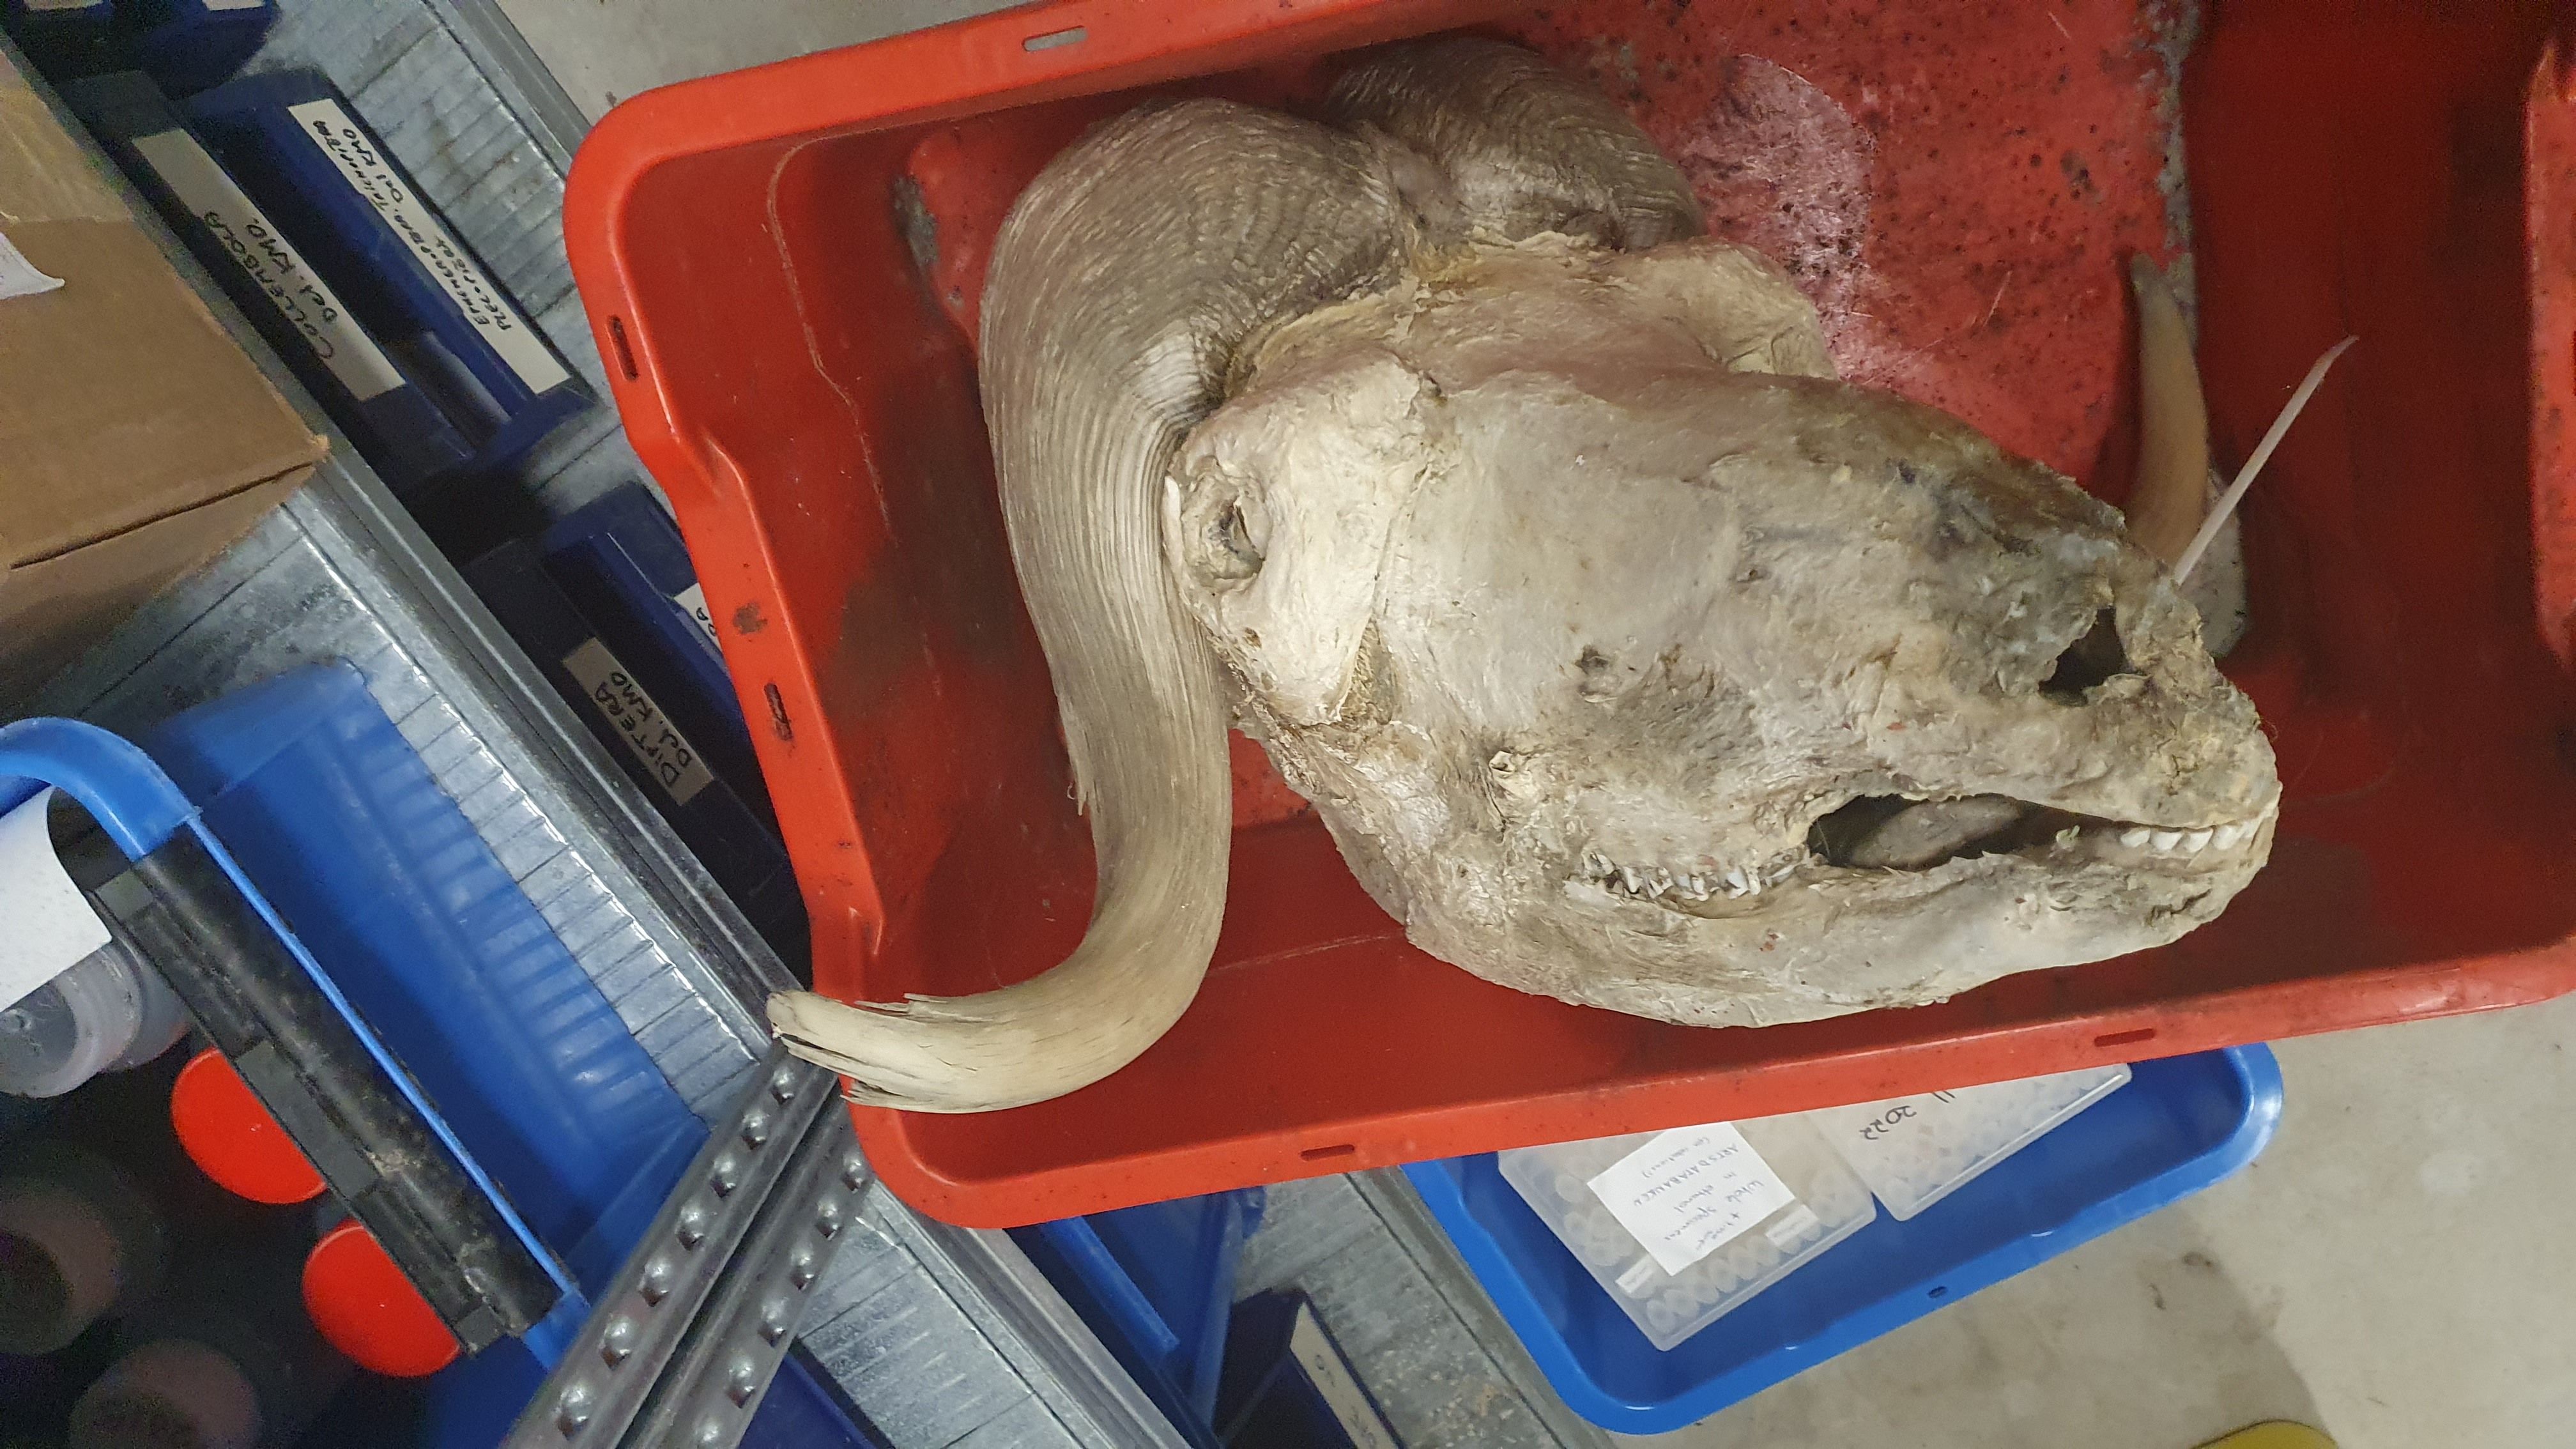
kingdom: Animalia
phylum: Chordata
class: Mammalia
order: Artiodactyla
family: Bovidae
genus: Ovibos
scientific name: Ovibos moschatus
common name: Muskox
